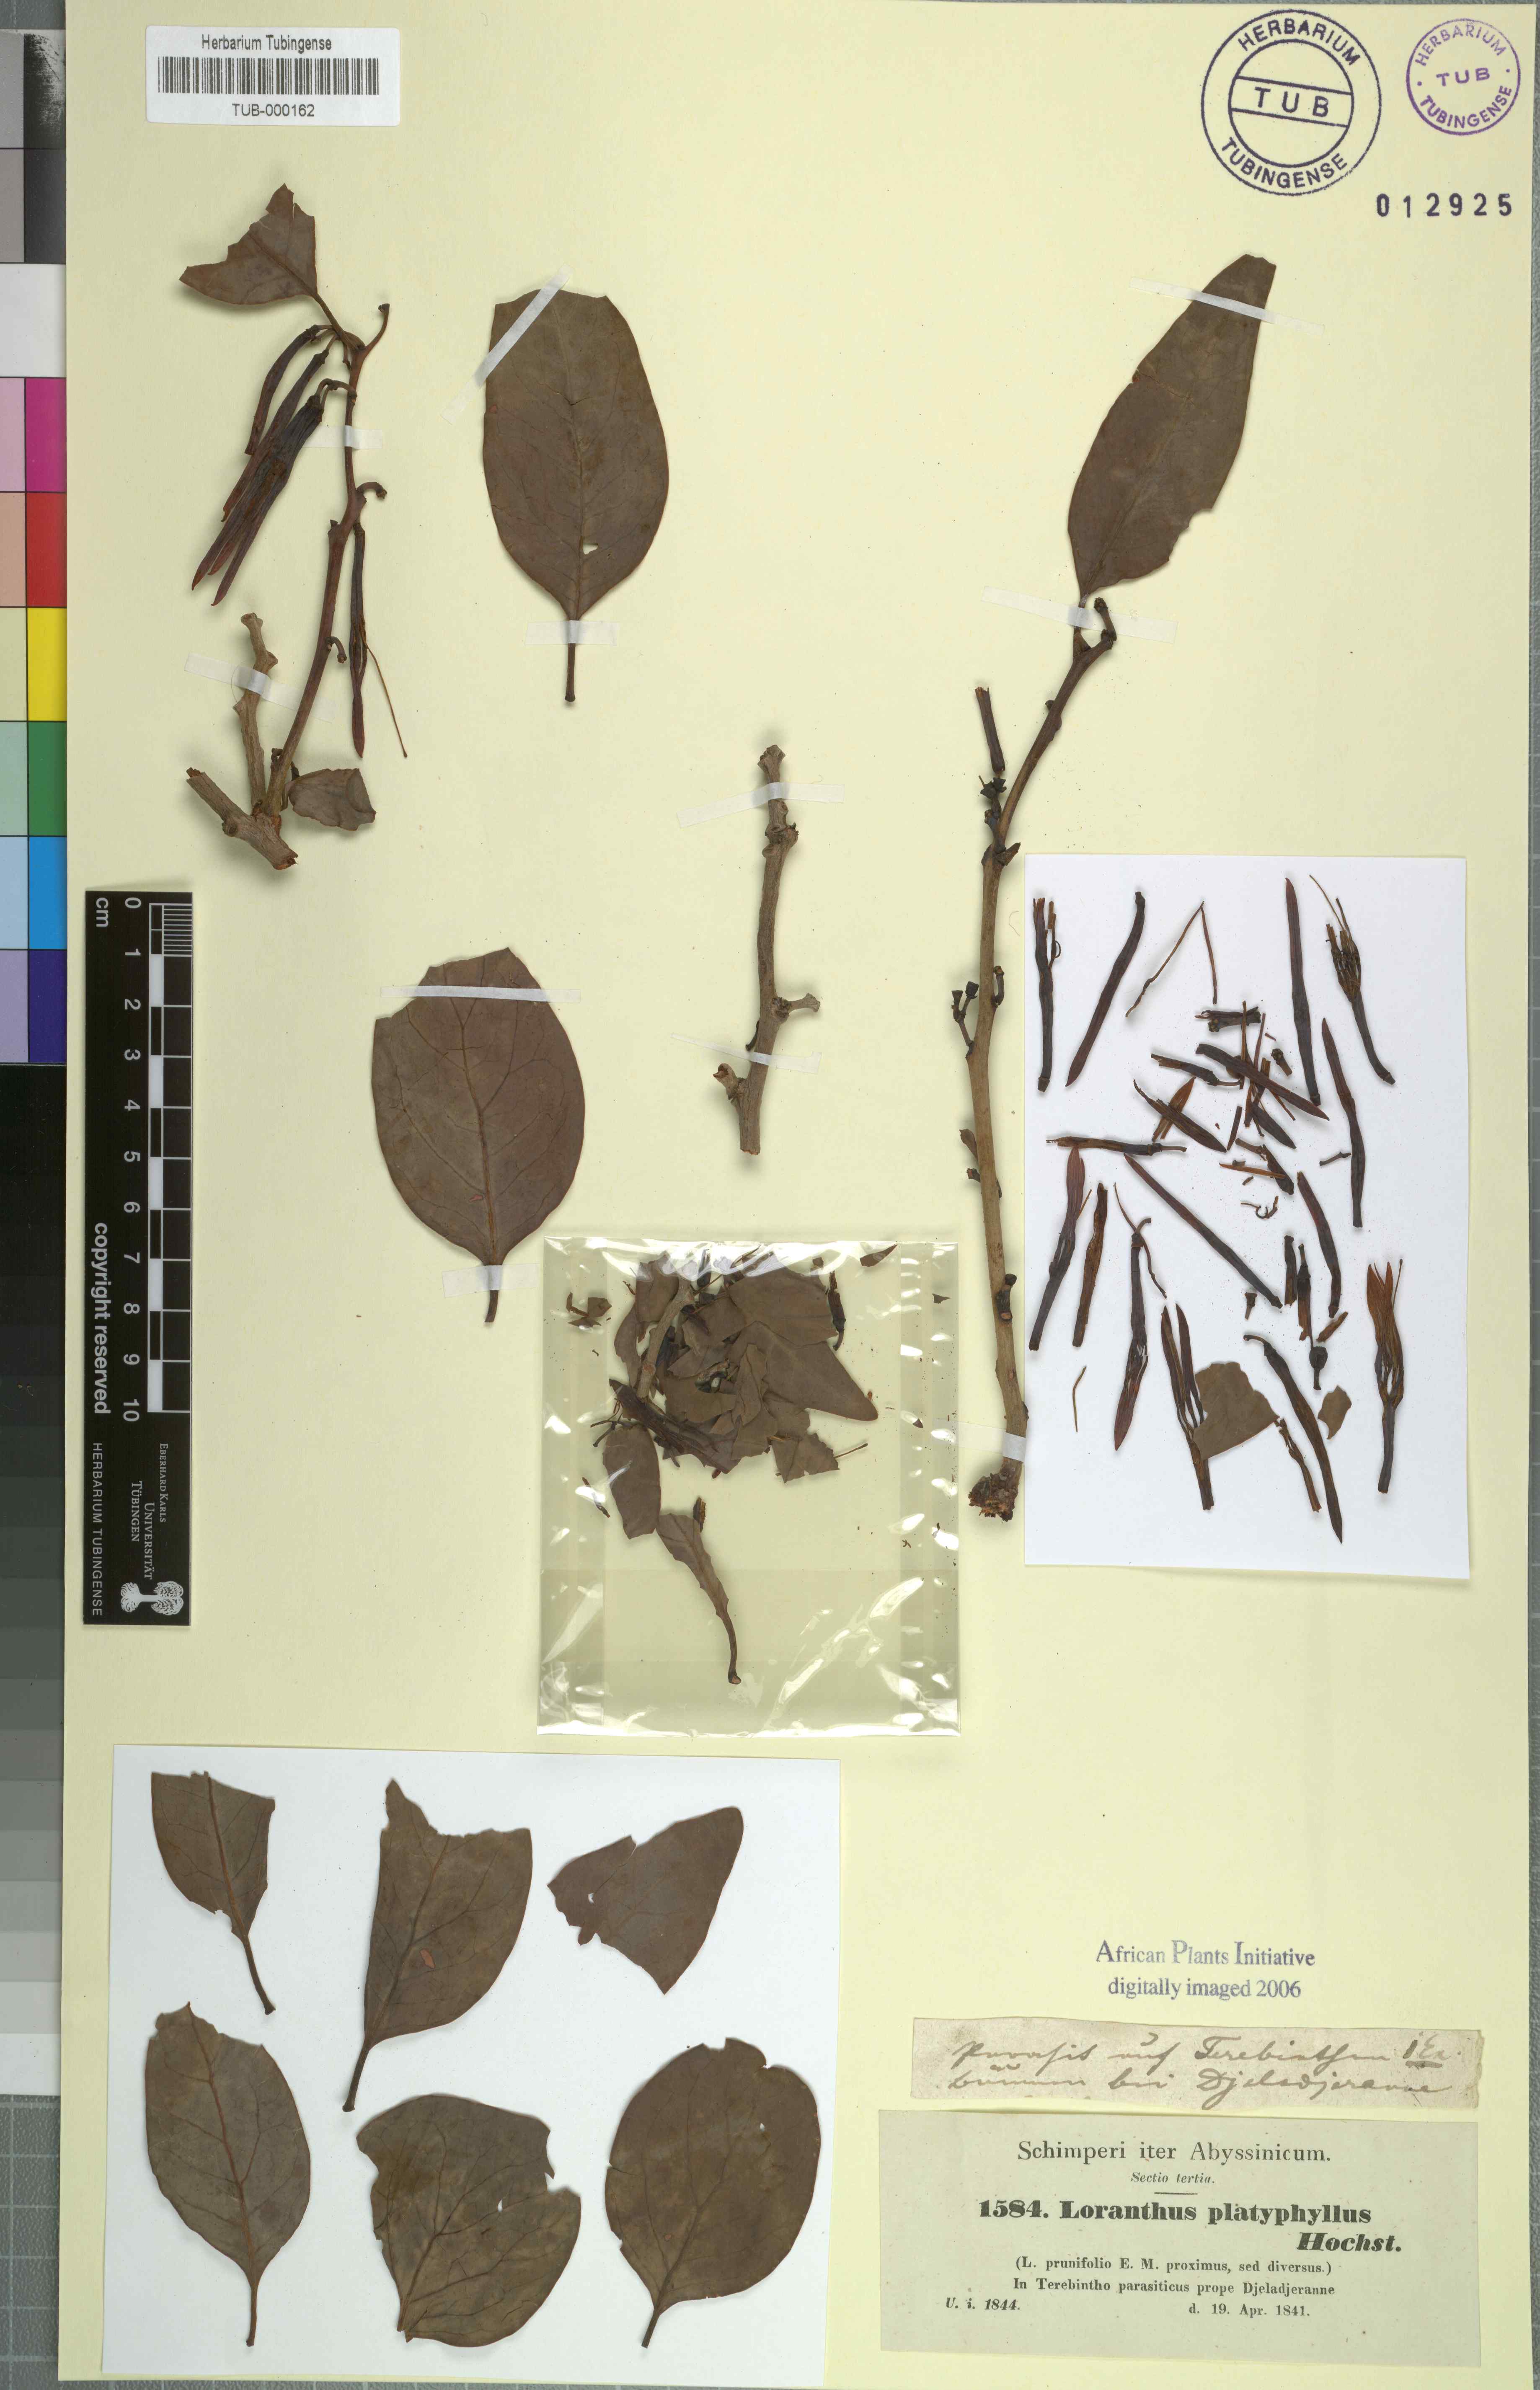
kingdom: Plantae
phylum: Tracheophyta
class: Magnoliopsida
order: Santalales
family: Loranthaceae
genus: Agelanthus
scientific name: Agelanthus platyphyllus
